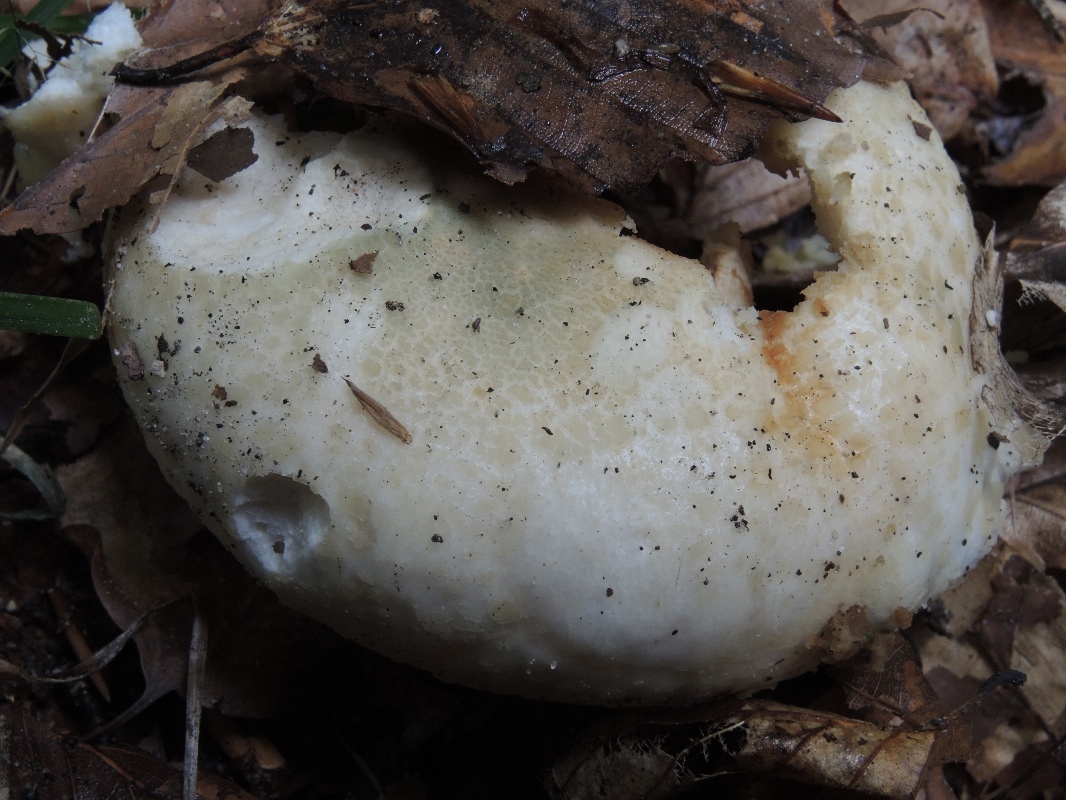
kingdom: Fungi
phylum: Basidiomycota
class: Agaricomycetes
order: Russulales
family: Russulaceae
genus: Russula
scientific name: Russula virescens
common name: spanskgrøn skørhat
